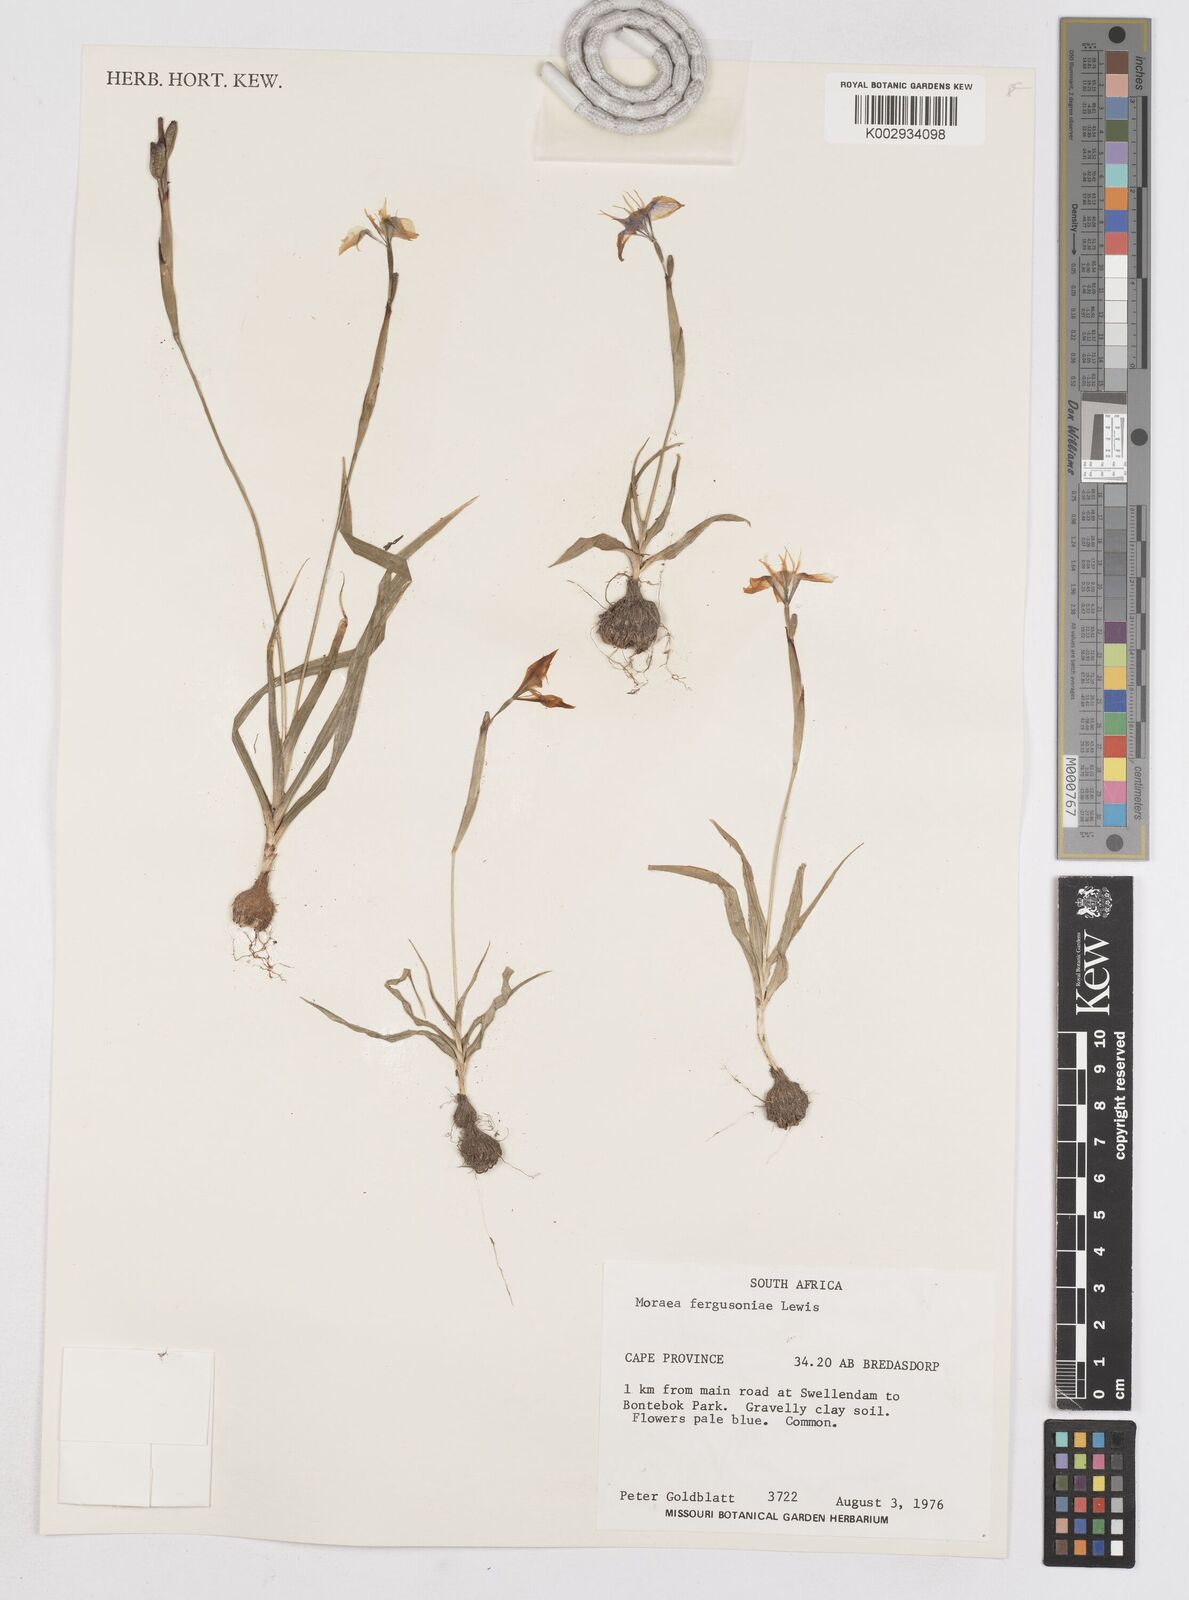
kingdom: Plantae
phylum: Tracheophyta
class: Liliopsida
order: Asparagales
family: Iridaceae
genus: Moraea
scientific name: Moraea fergusoniae
